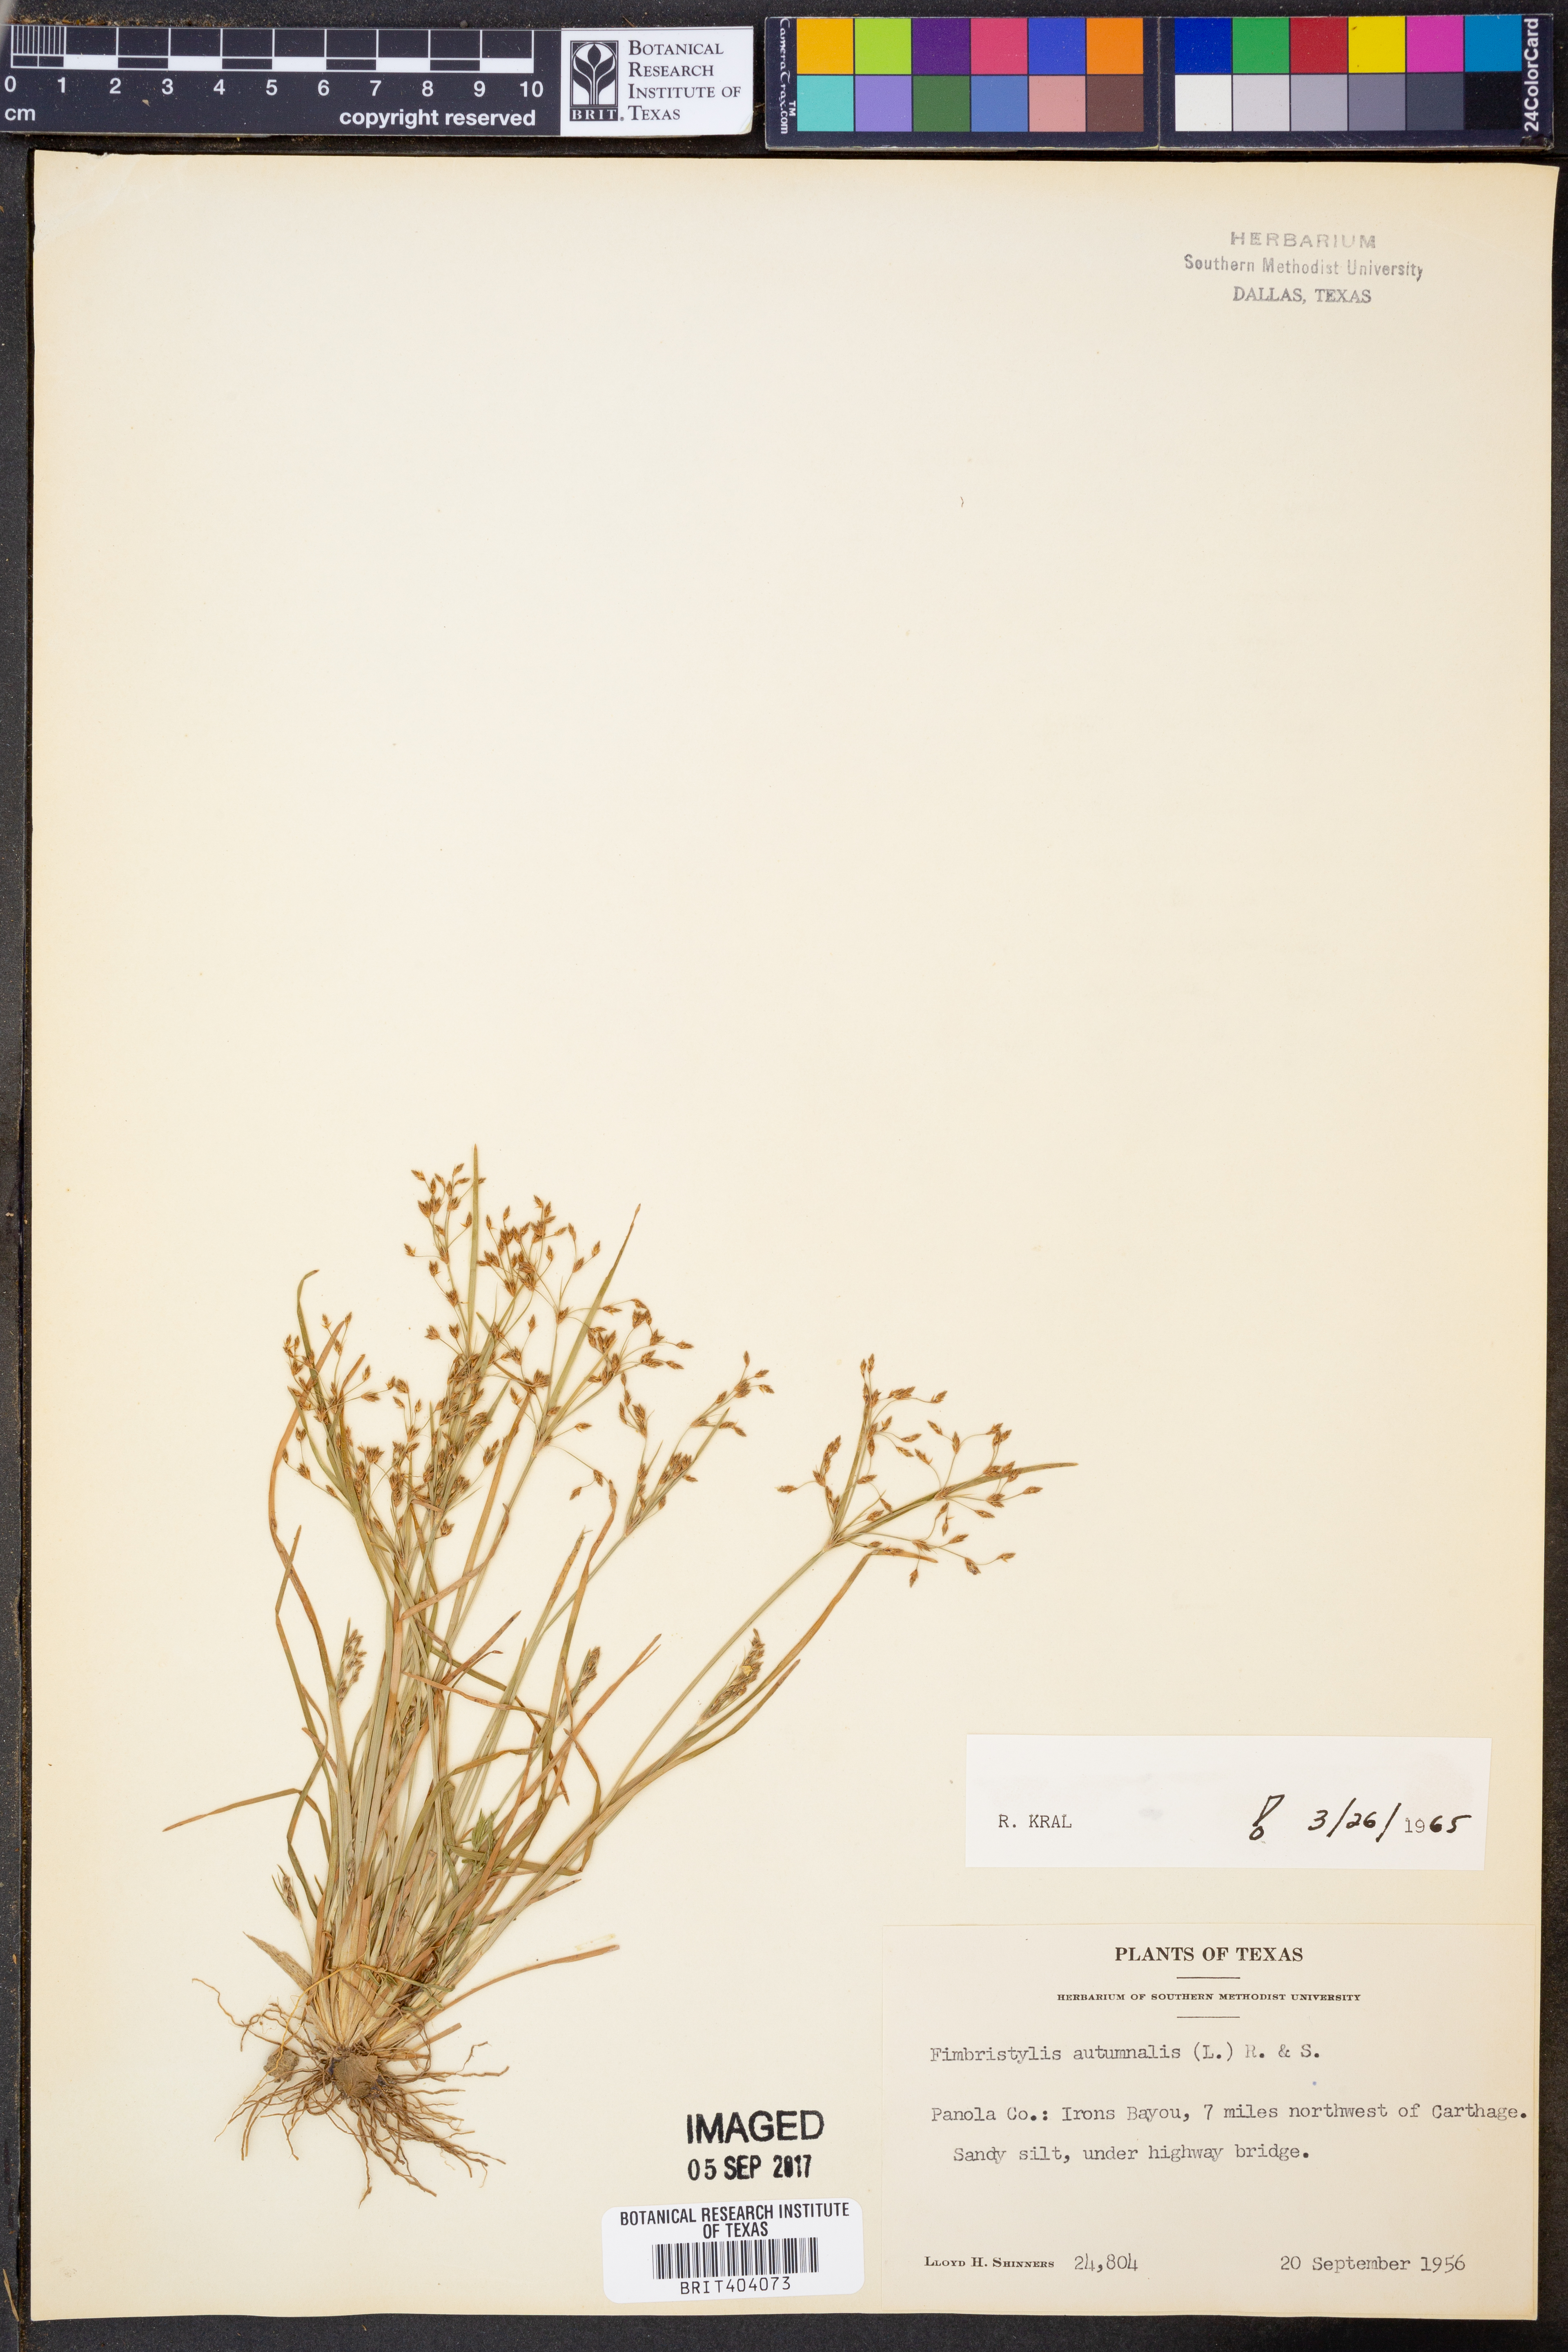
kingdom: Plantae
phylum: Tracheophyta
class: Liliopsida
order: Poales
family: Cyperaceae
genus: Fimbristylis
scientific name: Fimbristylis autumnalis
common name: Slender fimbristylis
